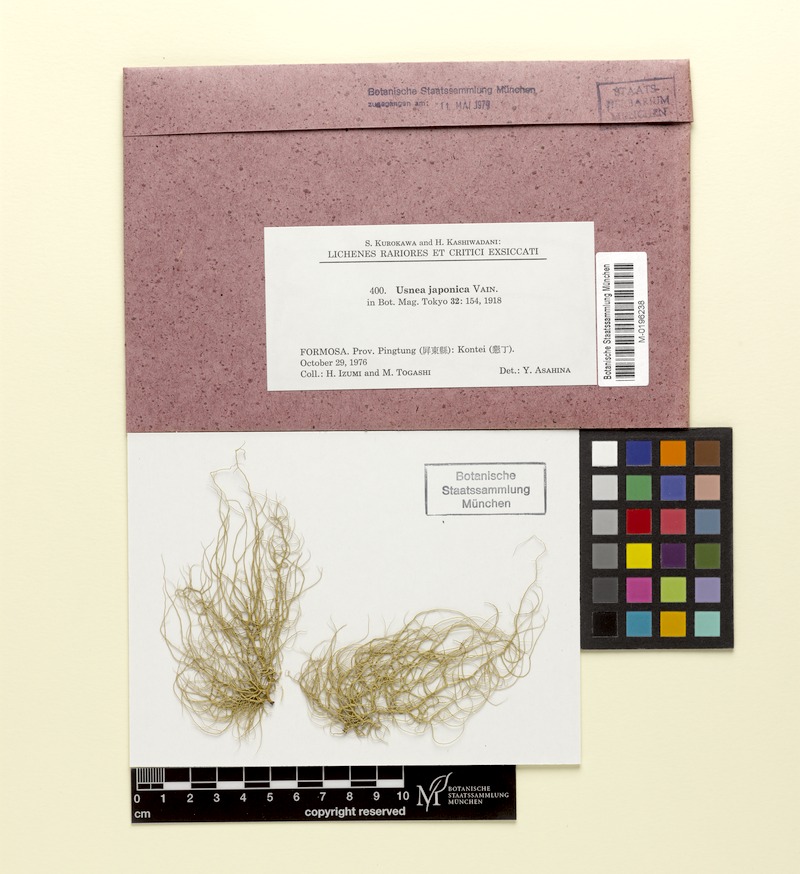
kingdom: Fungi
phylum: Ascomycota
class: Lecanoromycetes
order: Lecanorales
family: Parmeliaceae
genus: Usnea
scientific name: Usnea japonica
